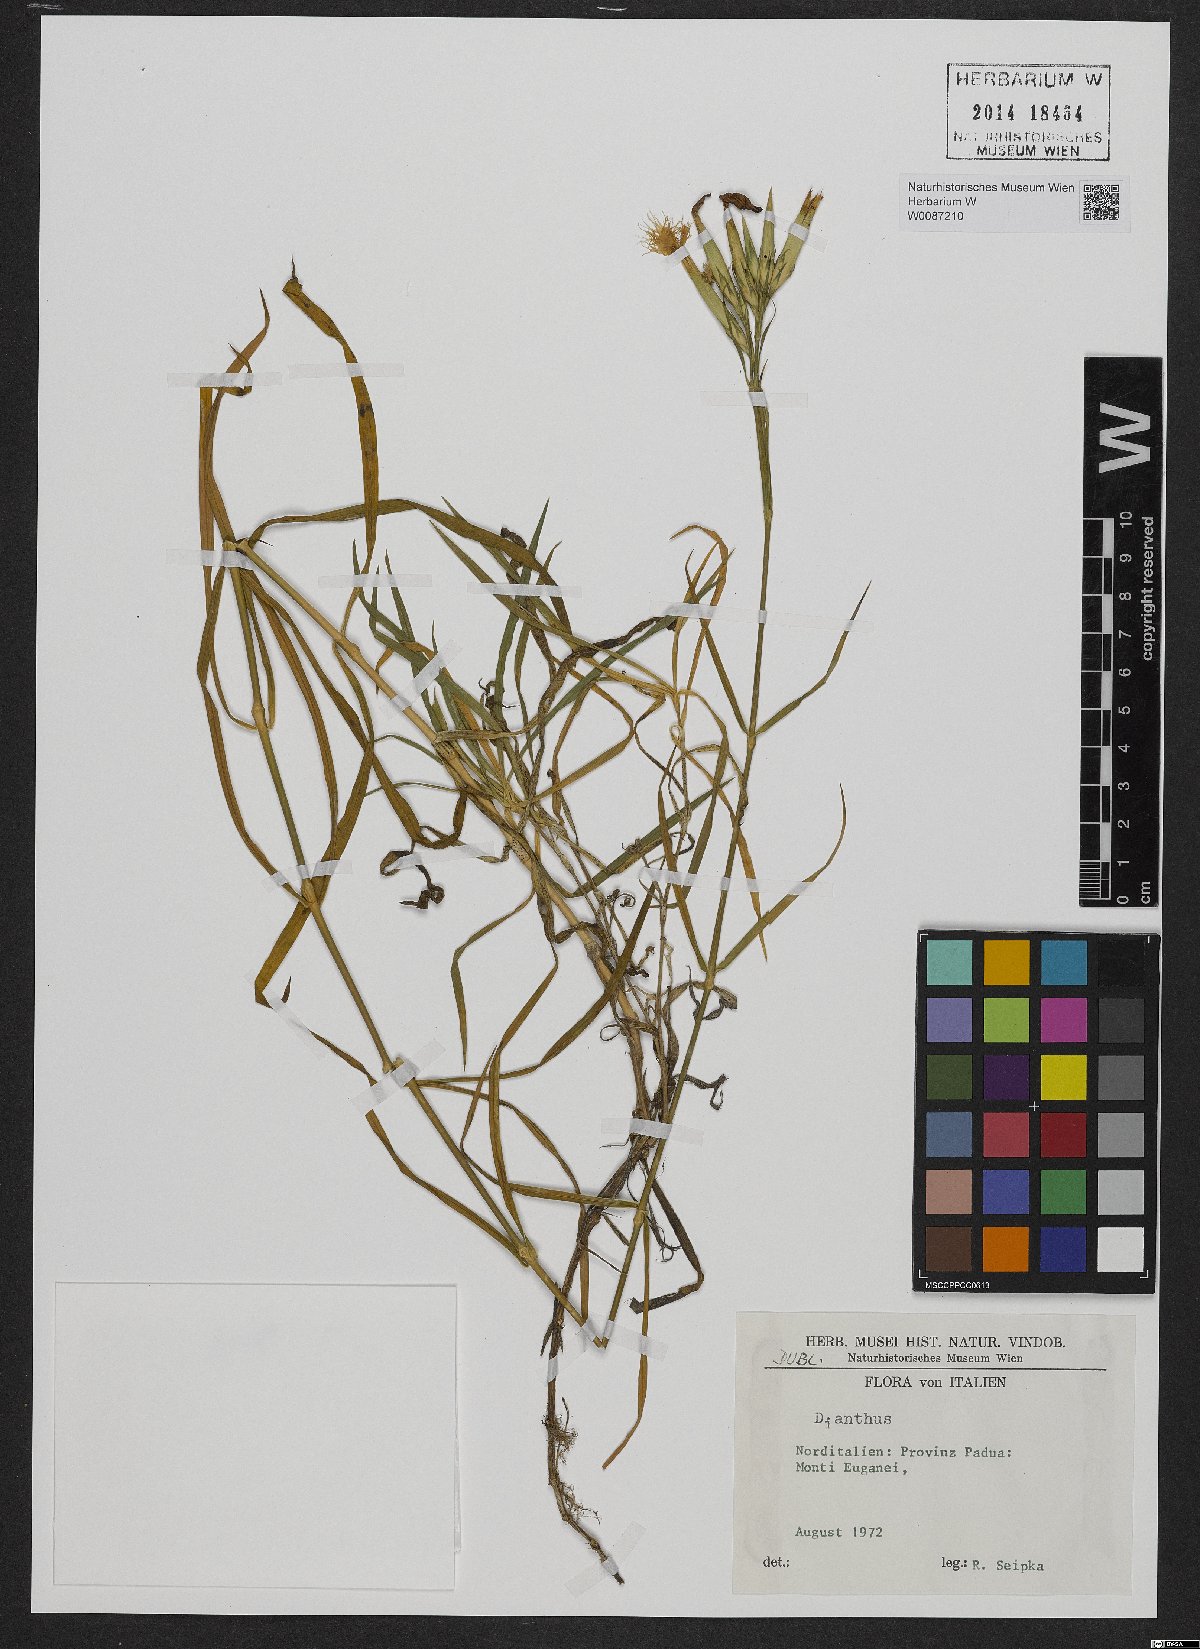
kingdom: Plantae
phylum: Tracheophyta
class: Magnoliopsida
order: Caryophyllales
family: Caryophyllaceae
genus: Dianthus
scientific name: Dianthus
